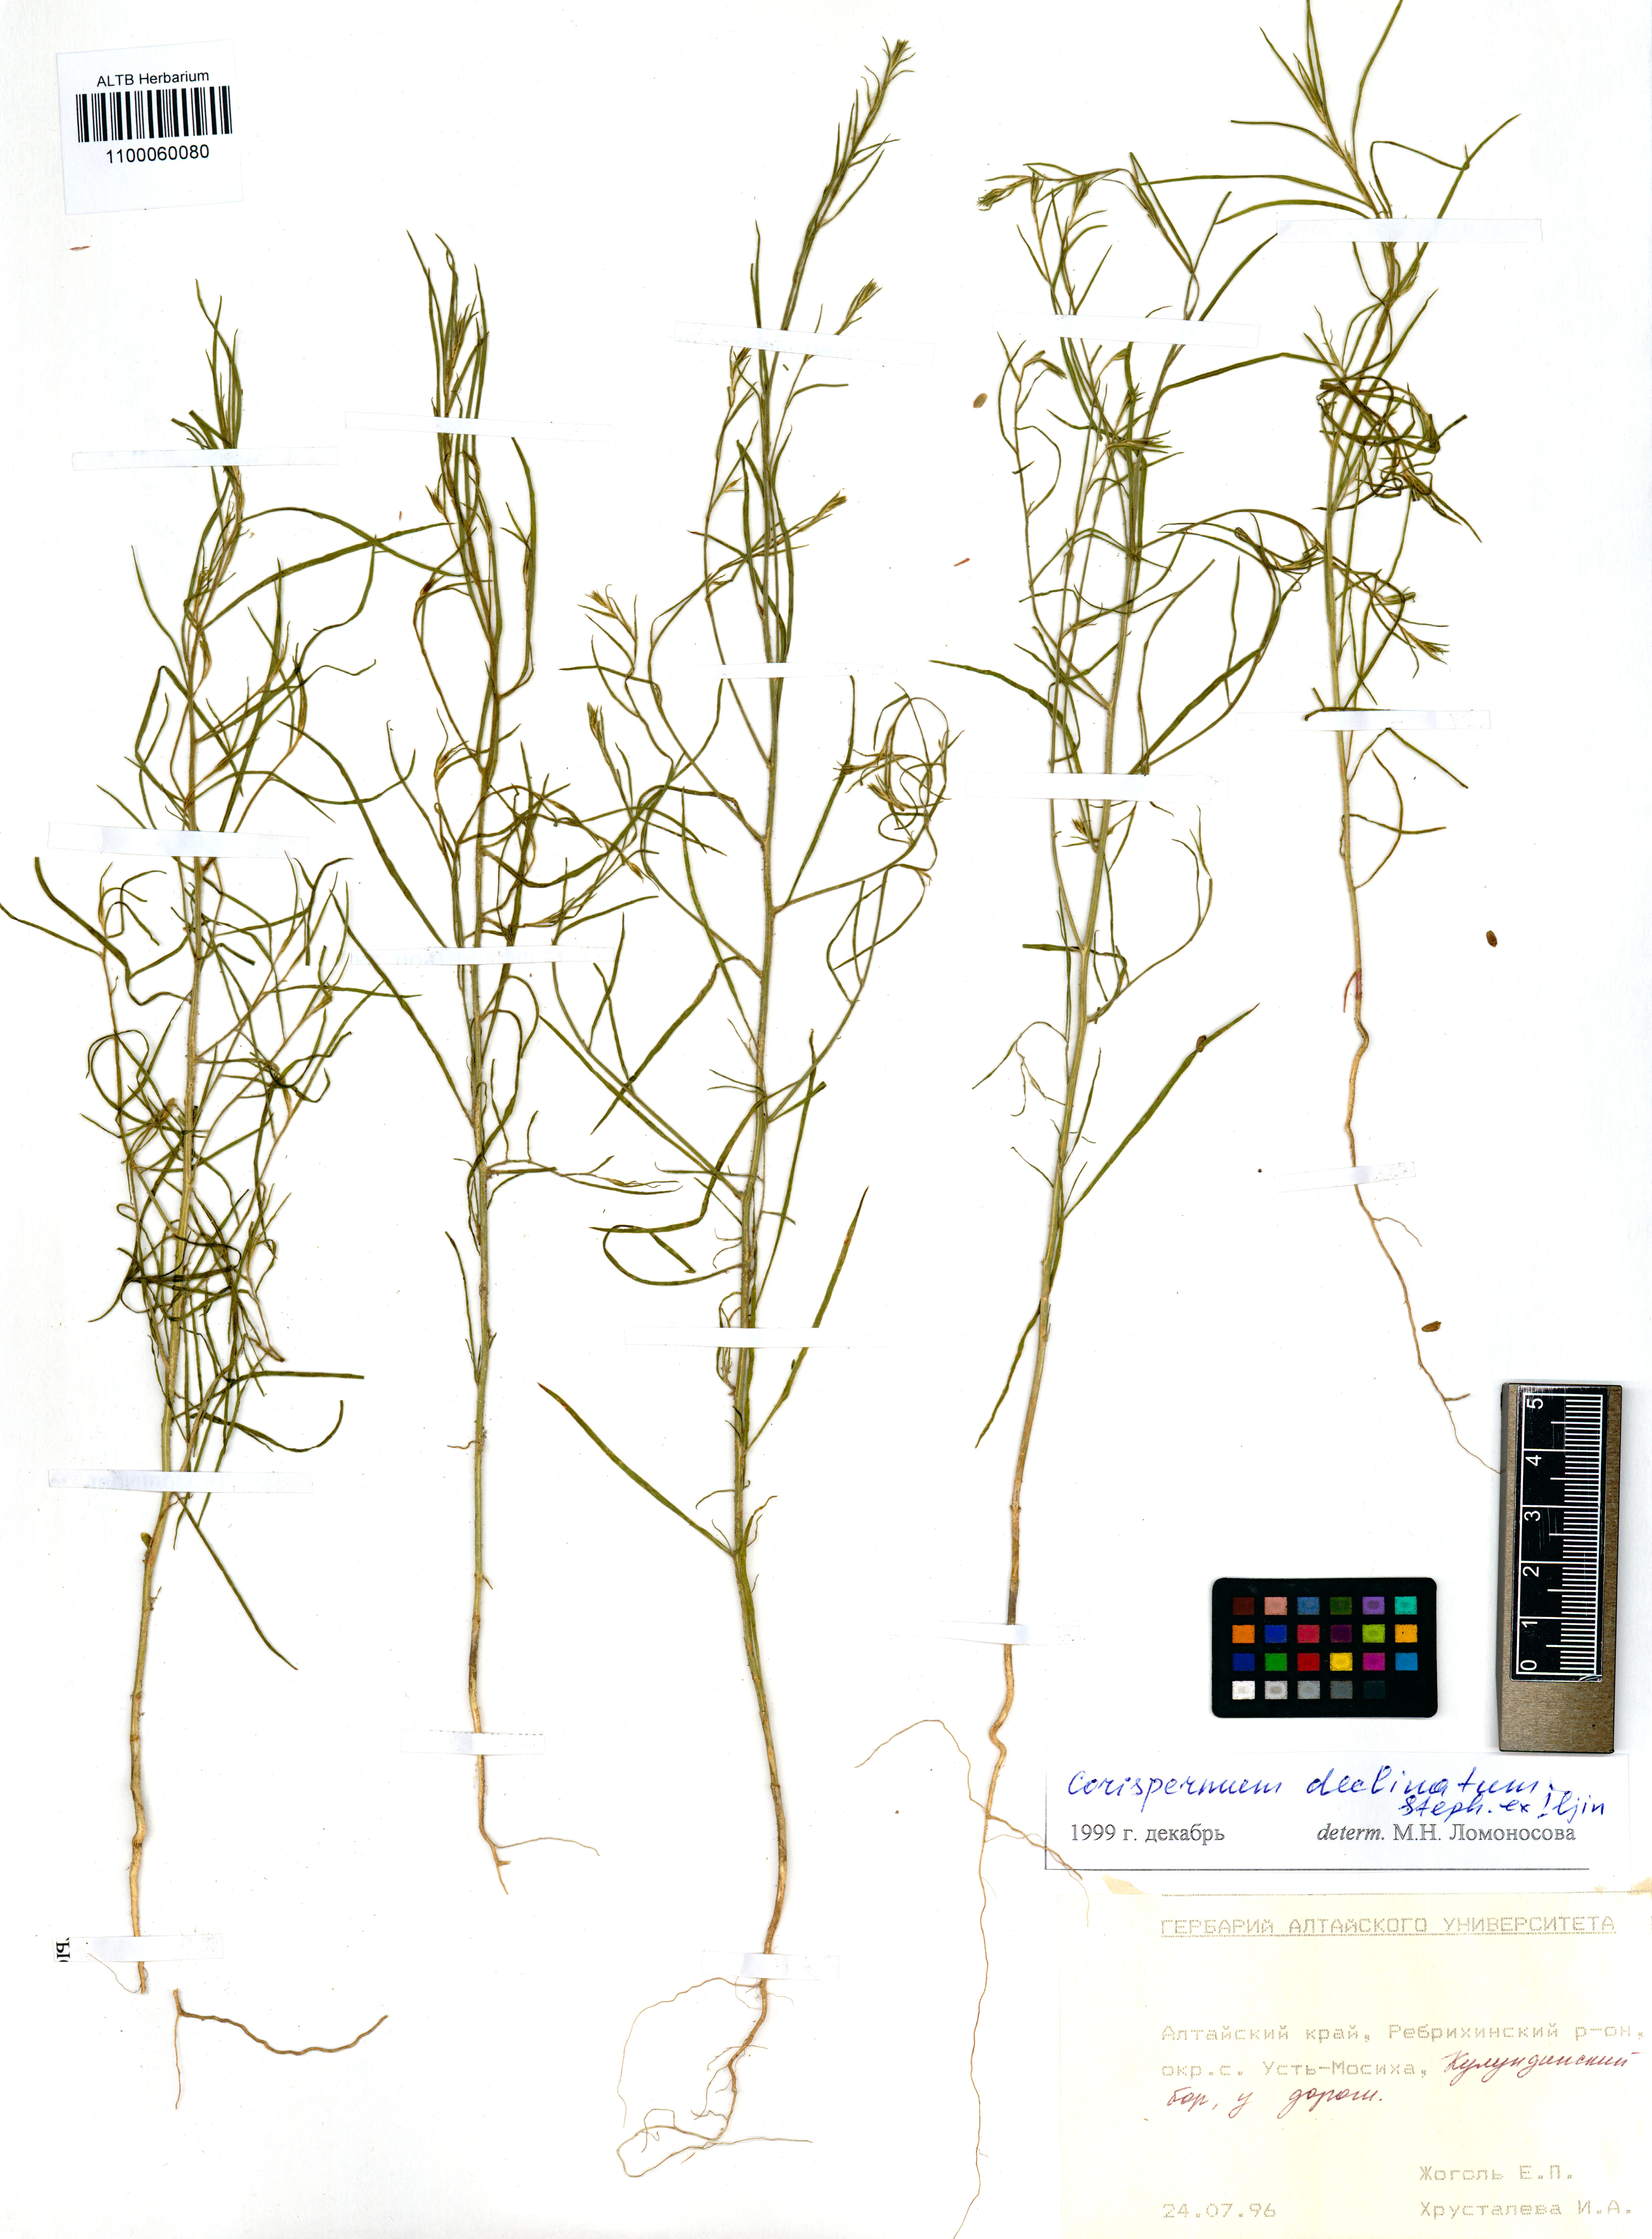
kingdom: Plantae
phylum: Tracheophyta
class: Magnoliopsida
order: Caryophyllales
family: Amaranthaceae
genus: Corispermum
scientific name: Corispermum declinatum
